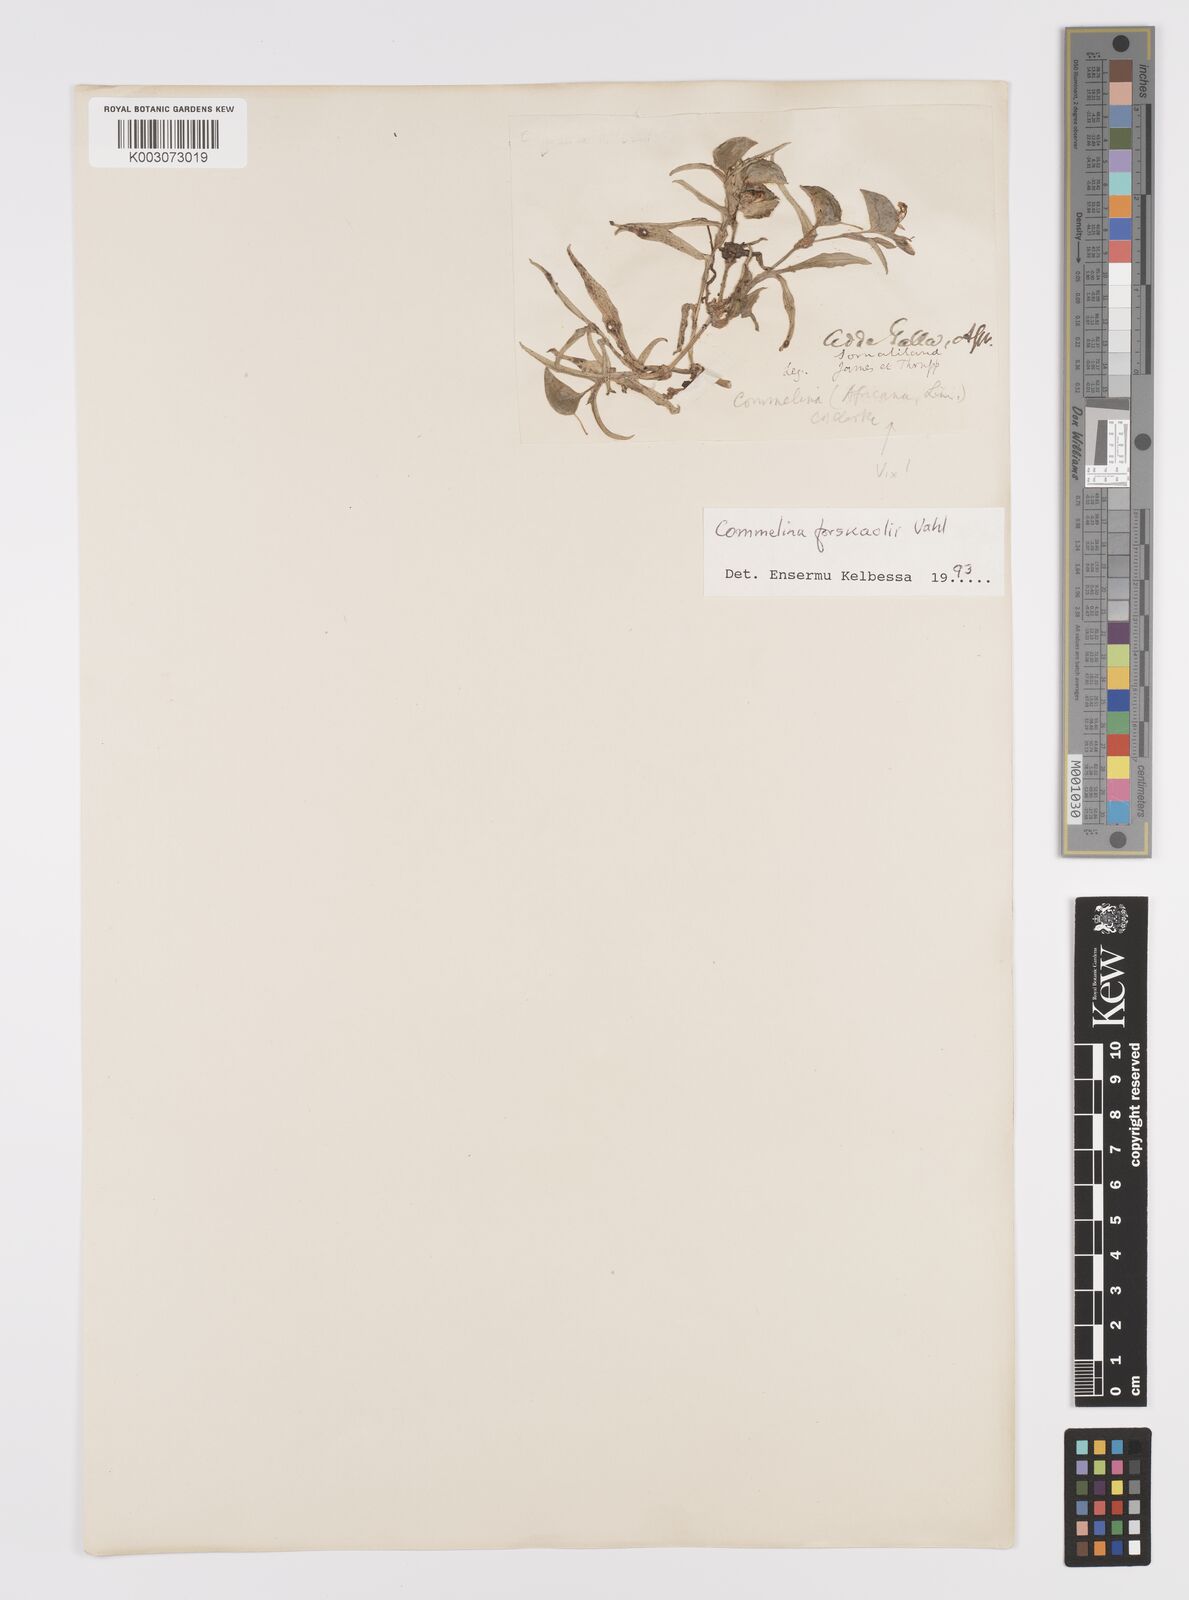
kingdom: Plantae
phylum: Tracheophyta
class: Liliopsida
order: Commelinales
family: Commelinaceae
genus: Commelina
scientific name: Commelina forskaolii
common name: Rat's ear
